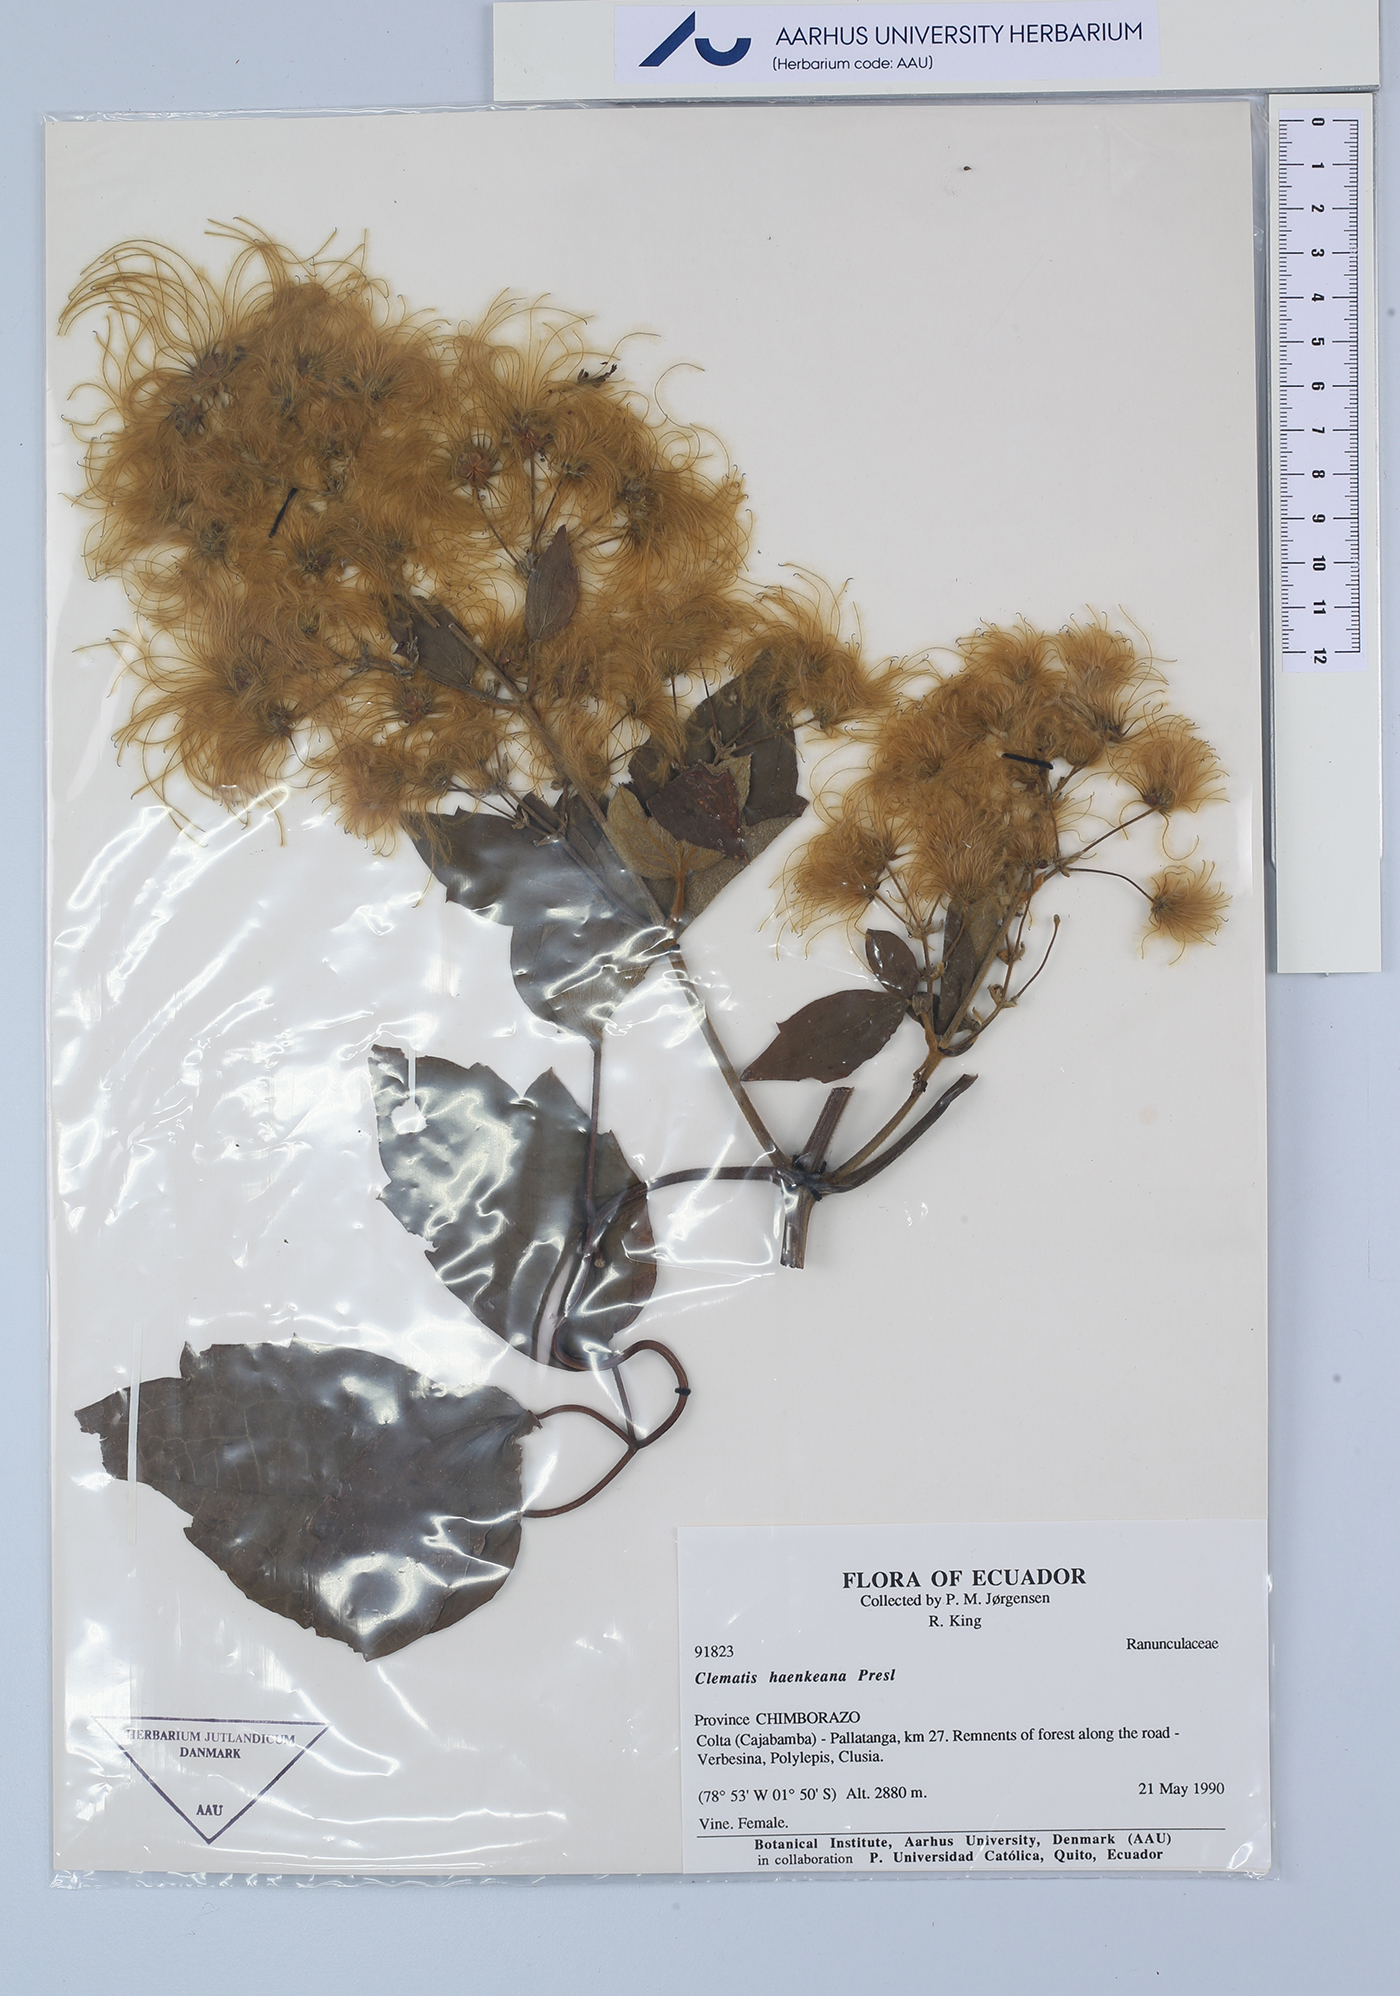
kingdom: Plantae
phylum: Tracheophyta
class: Magnoliopsida
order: Ranunculales
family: Ranunculaceae
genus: Clematis
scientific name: Clematis haenkeana
